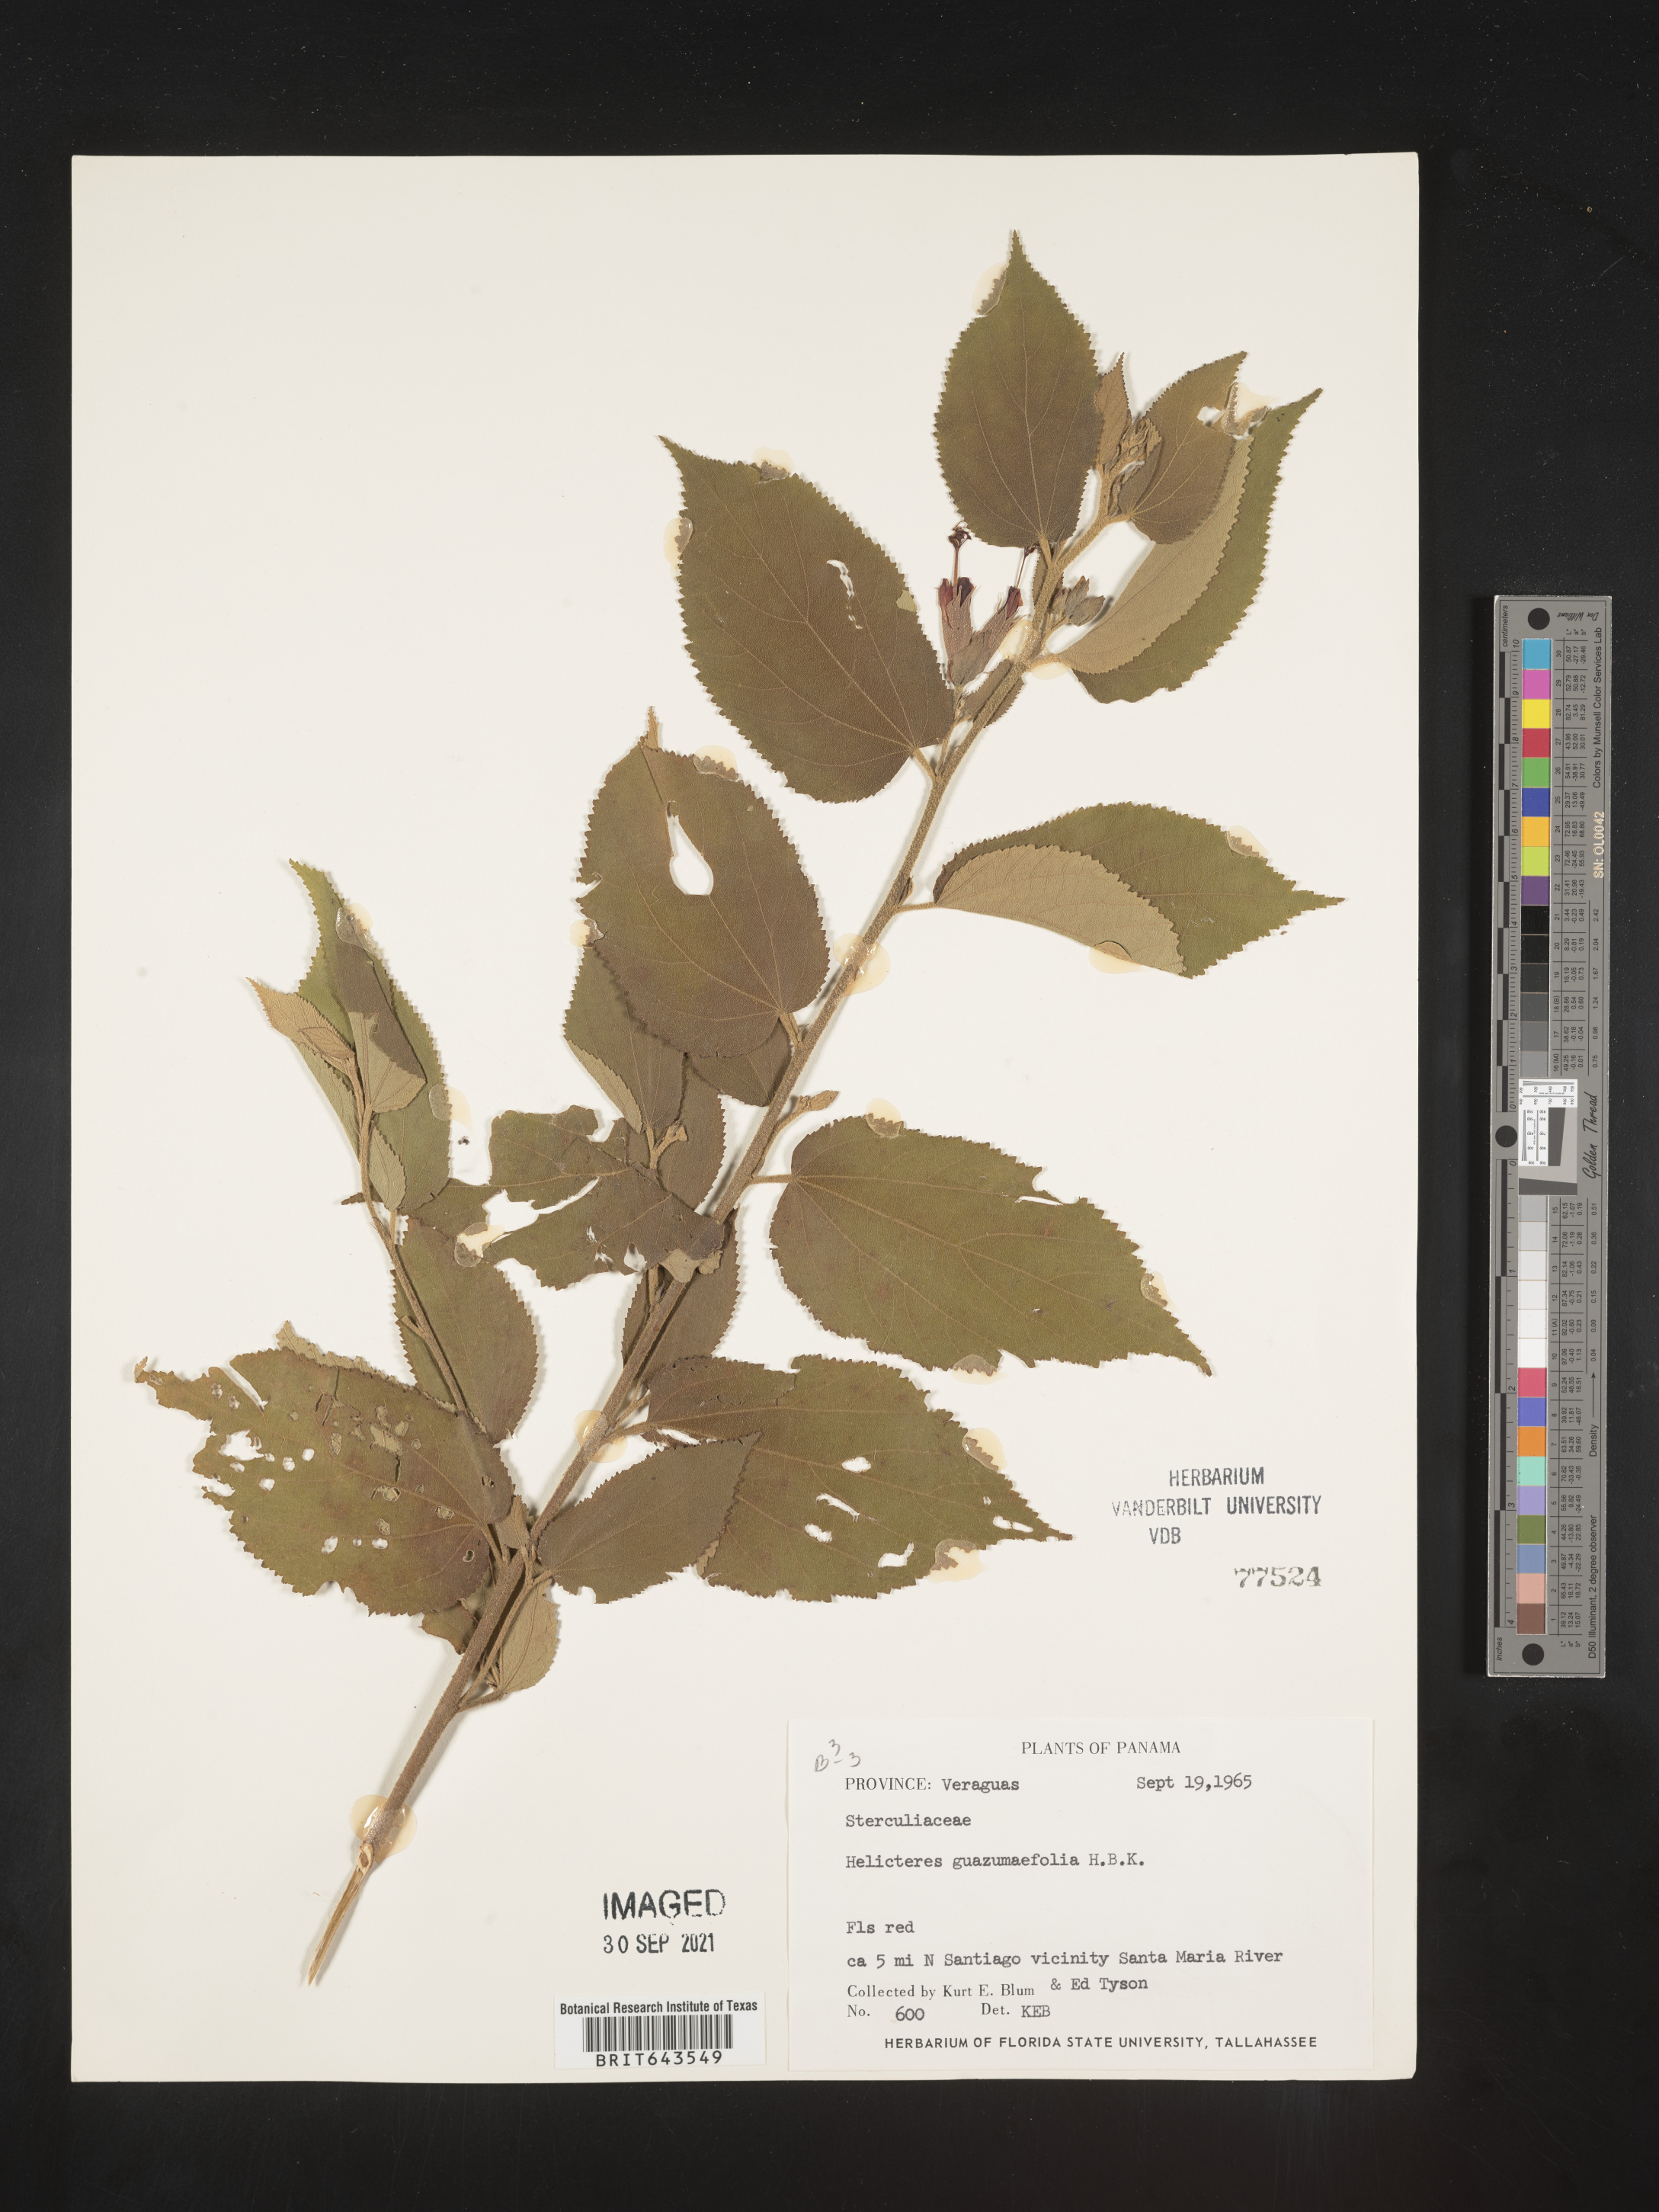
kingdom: Plantae
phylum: Tracheophyta
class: Magnoliopsida
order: Malvales
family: Malvaceae
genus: Helicteres
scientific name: Helicteres
